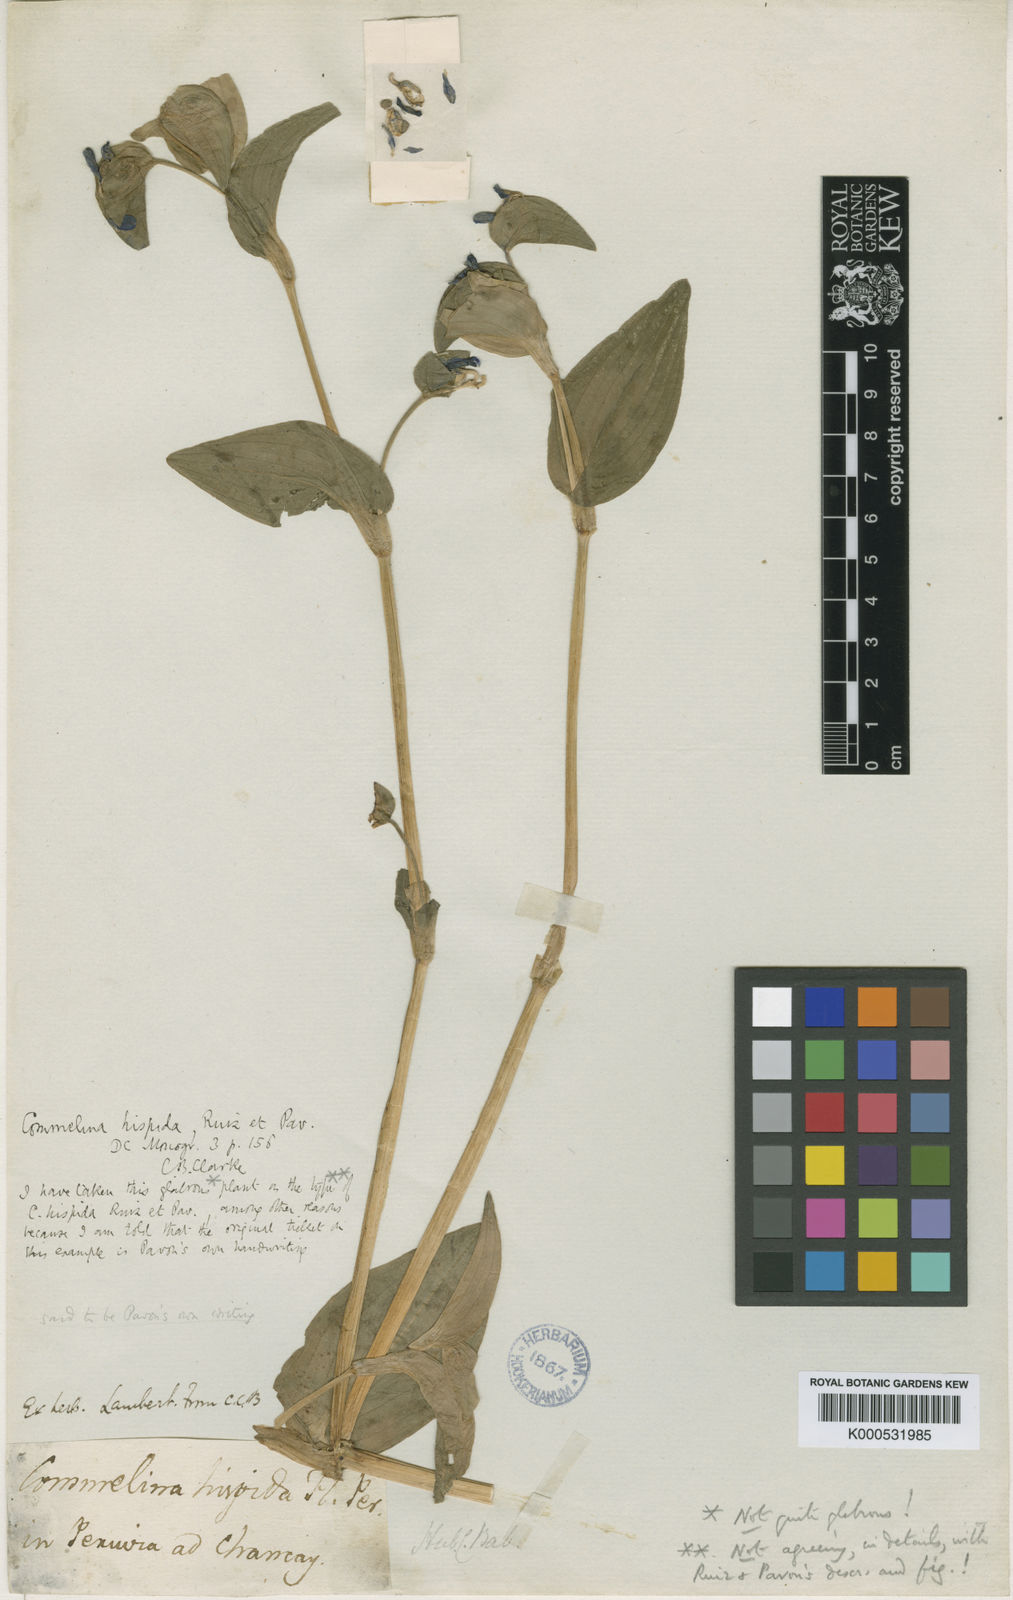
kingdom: Plantae
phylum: Tracheophyta
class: Liliopsida
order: Commelinales
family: Commelinaceae
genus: Commelina
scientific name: Commelina hispida
